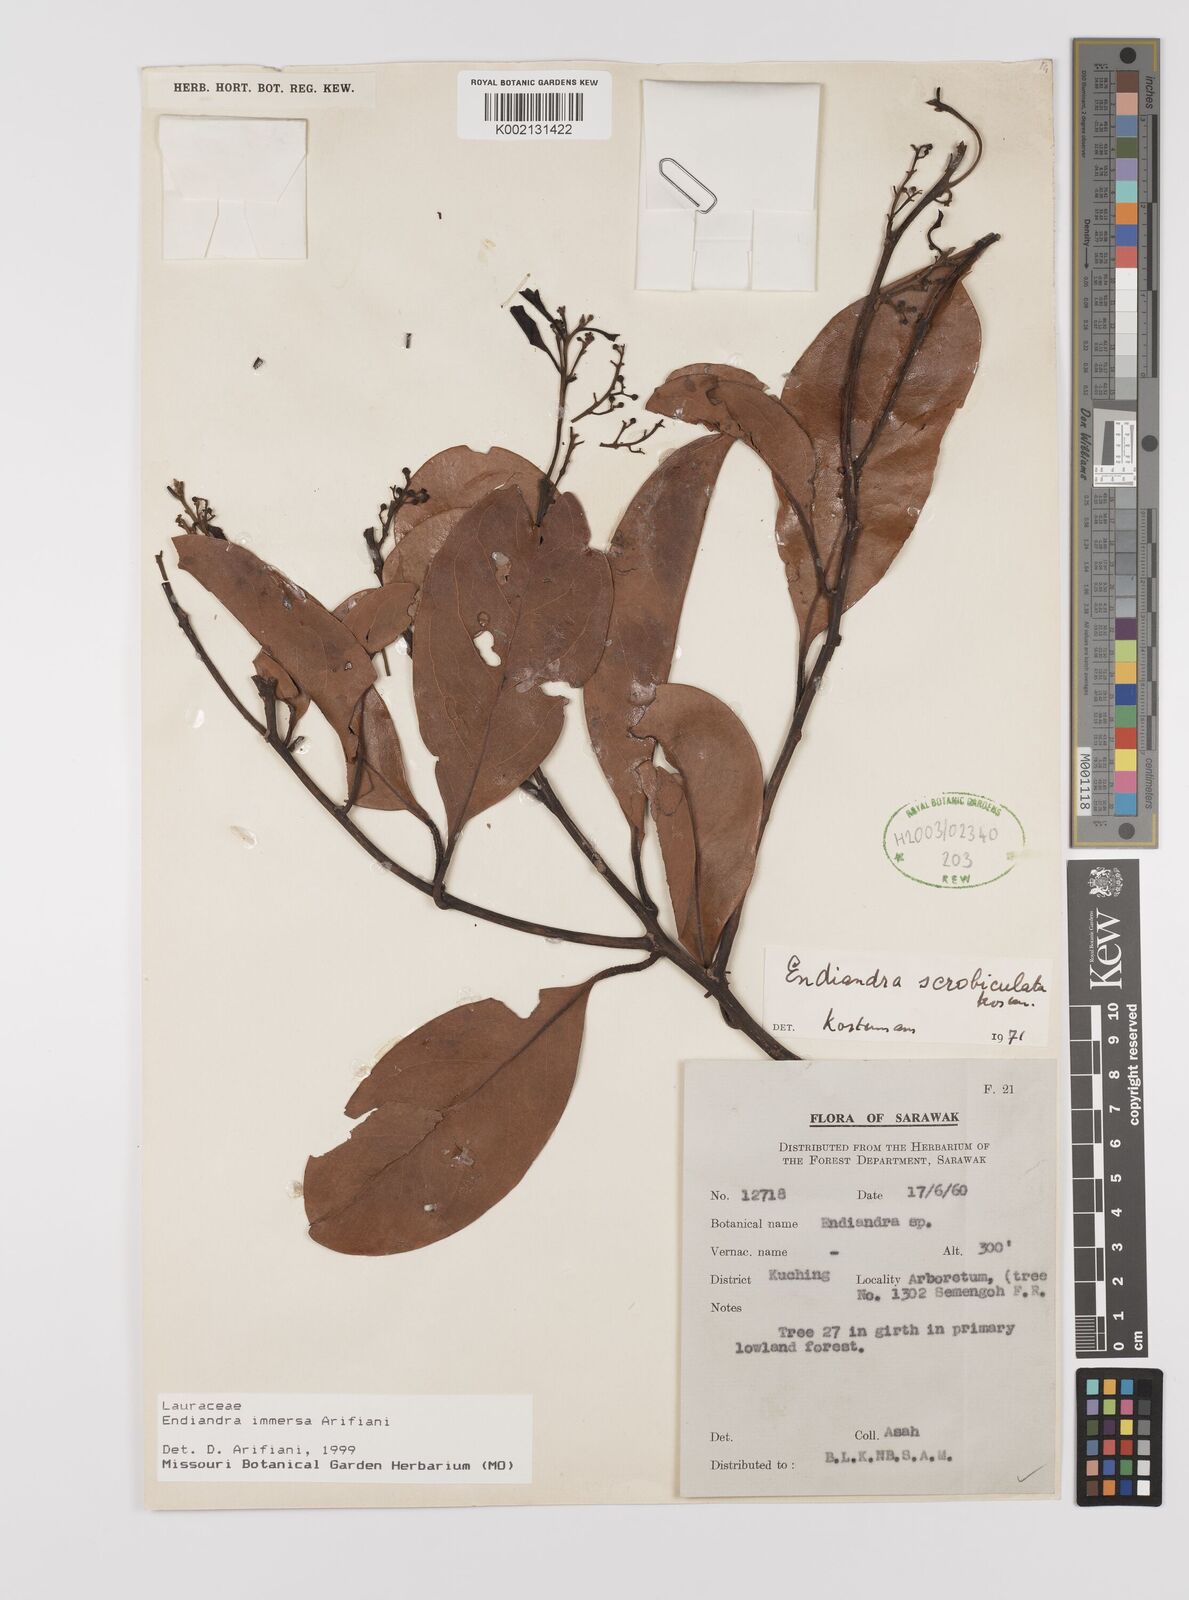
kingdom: Plantae
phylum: Tracheophyta
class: Magnoliopsida
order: Laurales
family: Lauraceae
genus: Endiandra
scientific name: Endiandra immersa
